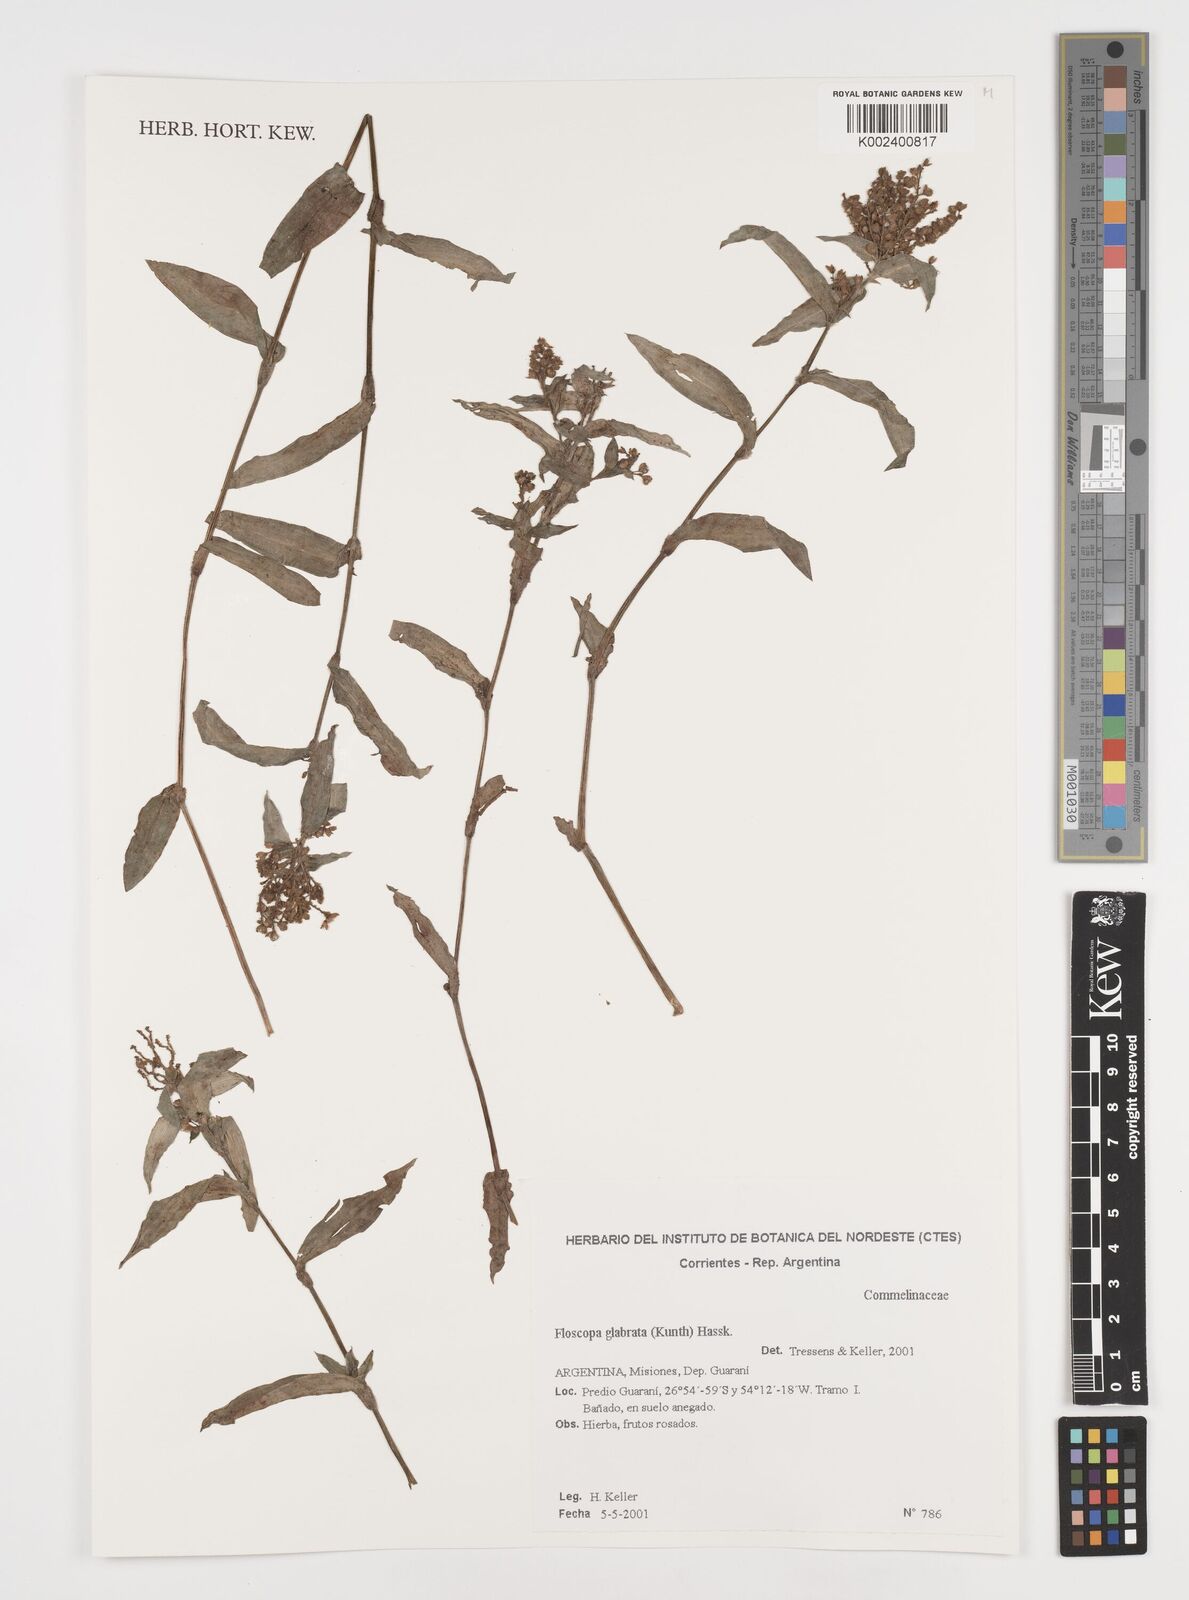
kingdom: Plantae
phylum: Tracheophyta
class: Liliopsida
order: Commelinales
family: Commelinaceae
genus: Floscopa
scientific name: Floscopa glabrata
